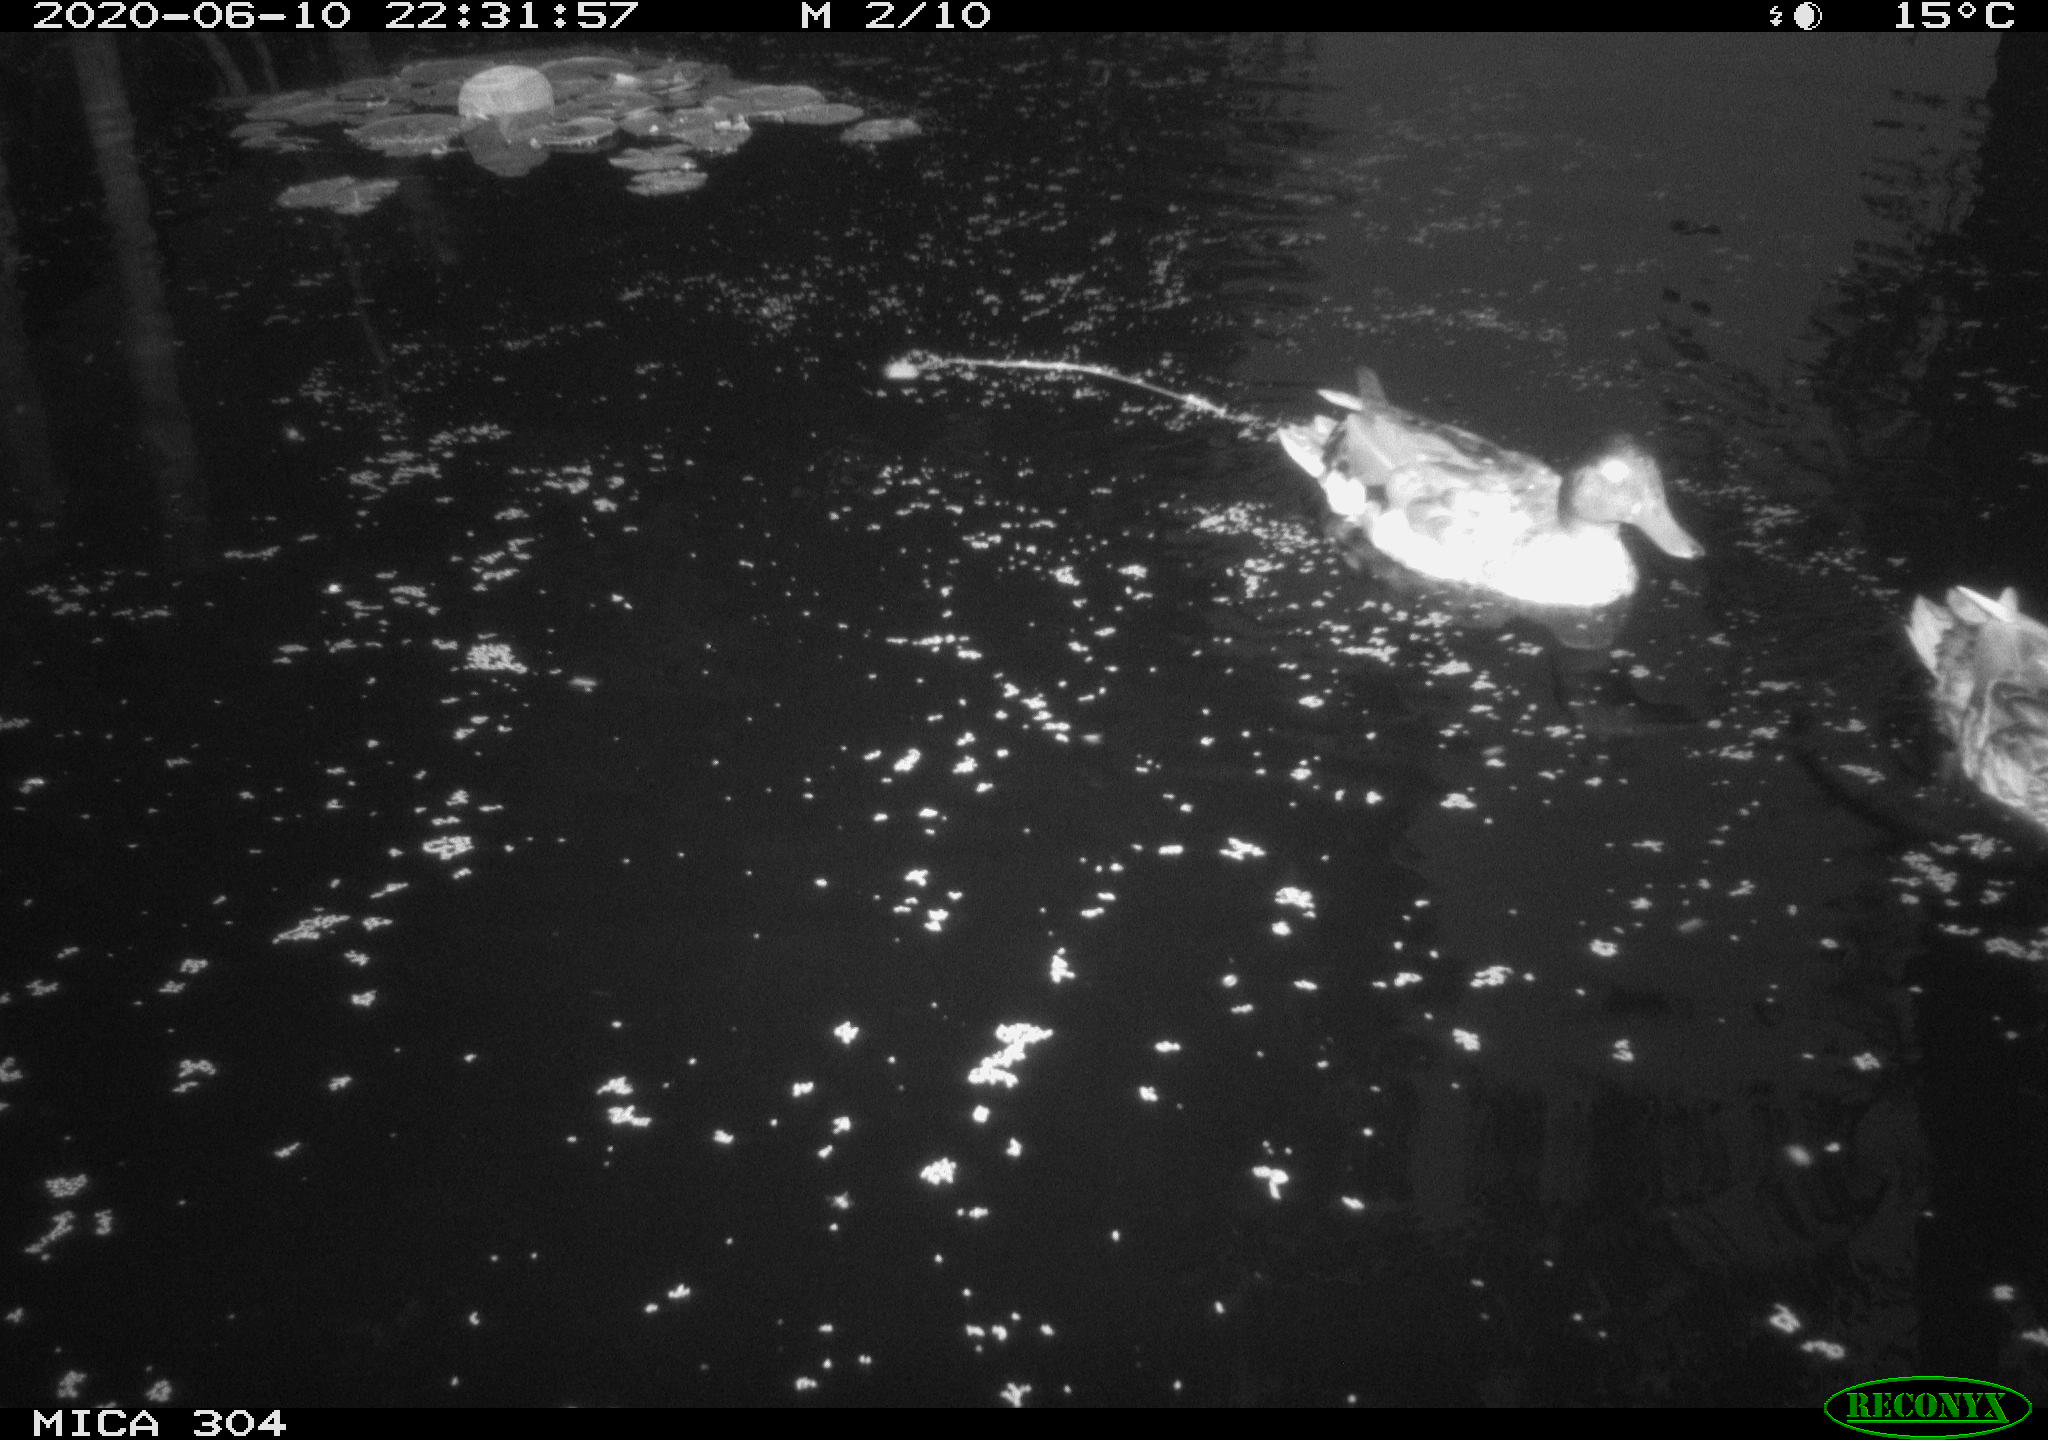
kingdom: Animalia
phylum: Chordata
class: Aves
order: Anseriformes
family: Anatidae
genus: Anas
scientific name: Anas platyrhynchos
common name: Mallard
